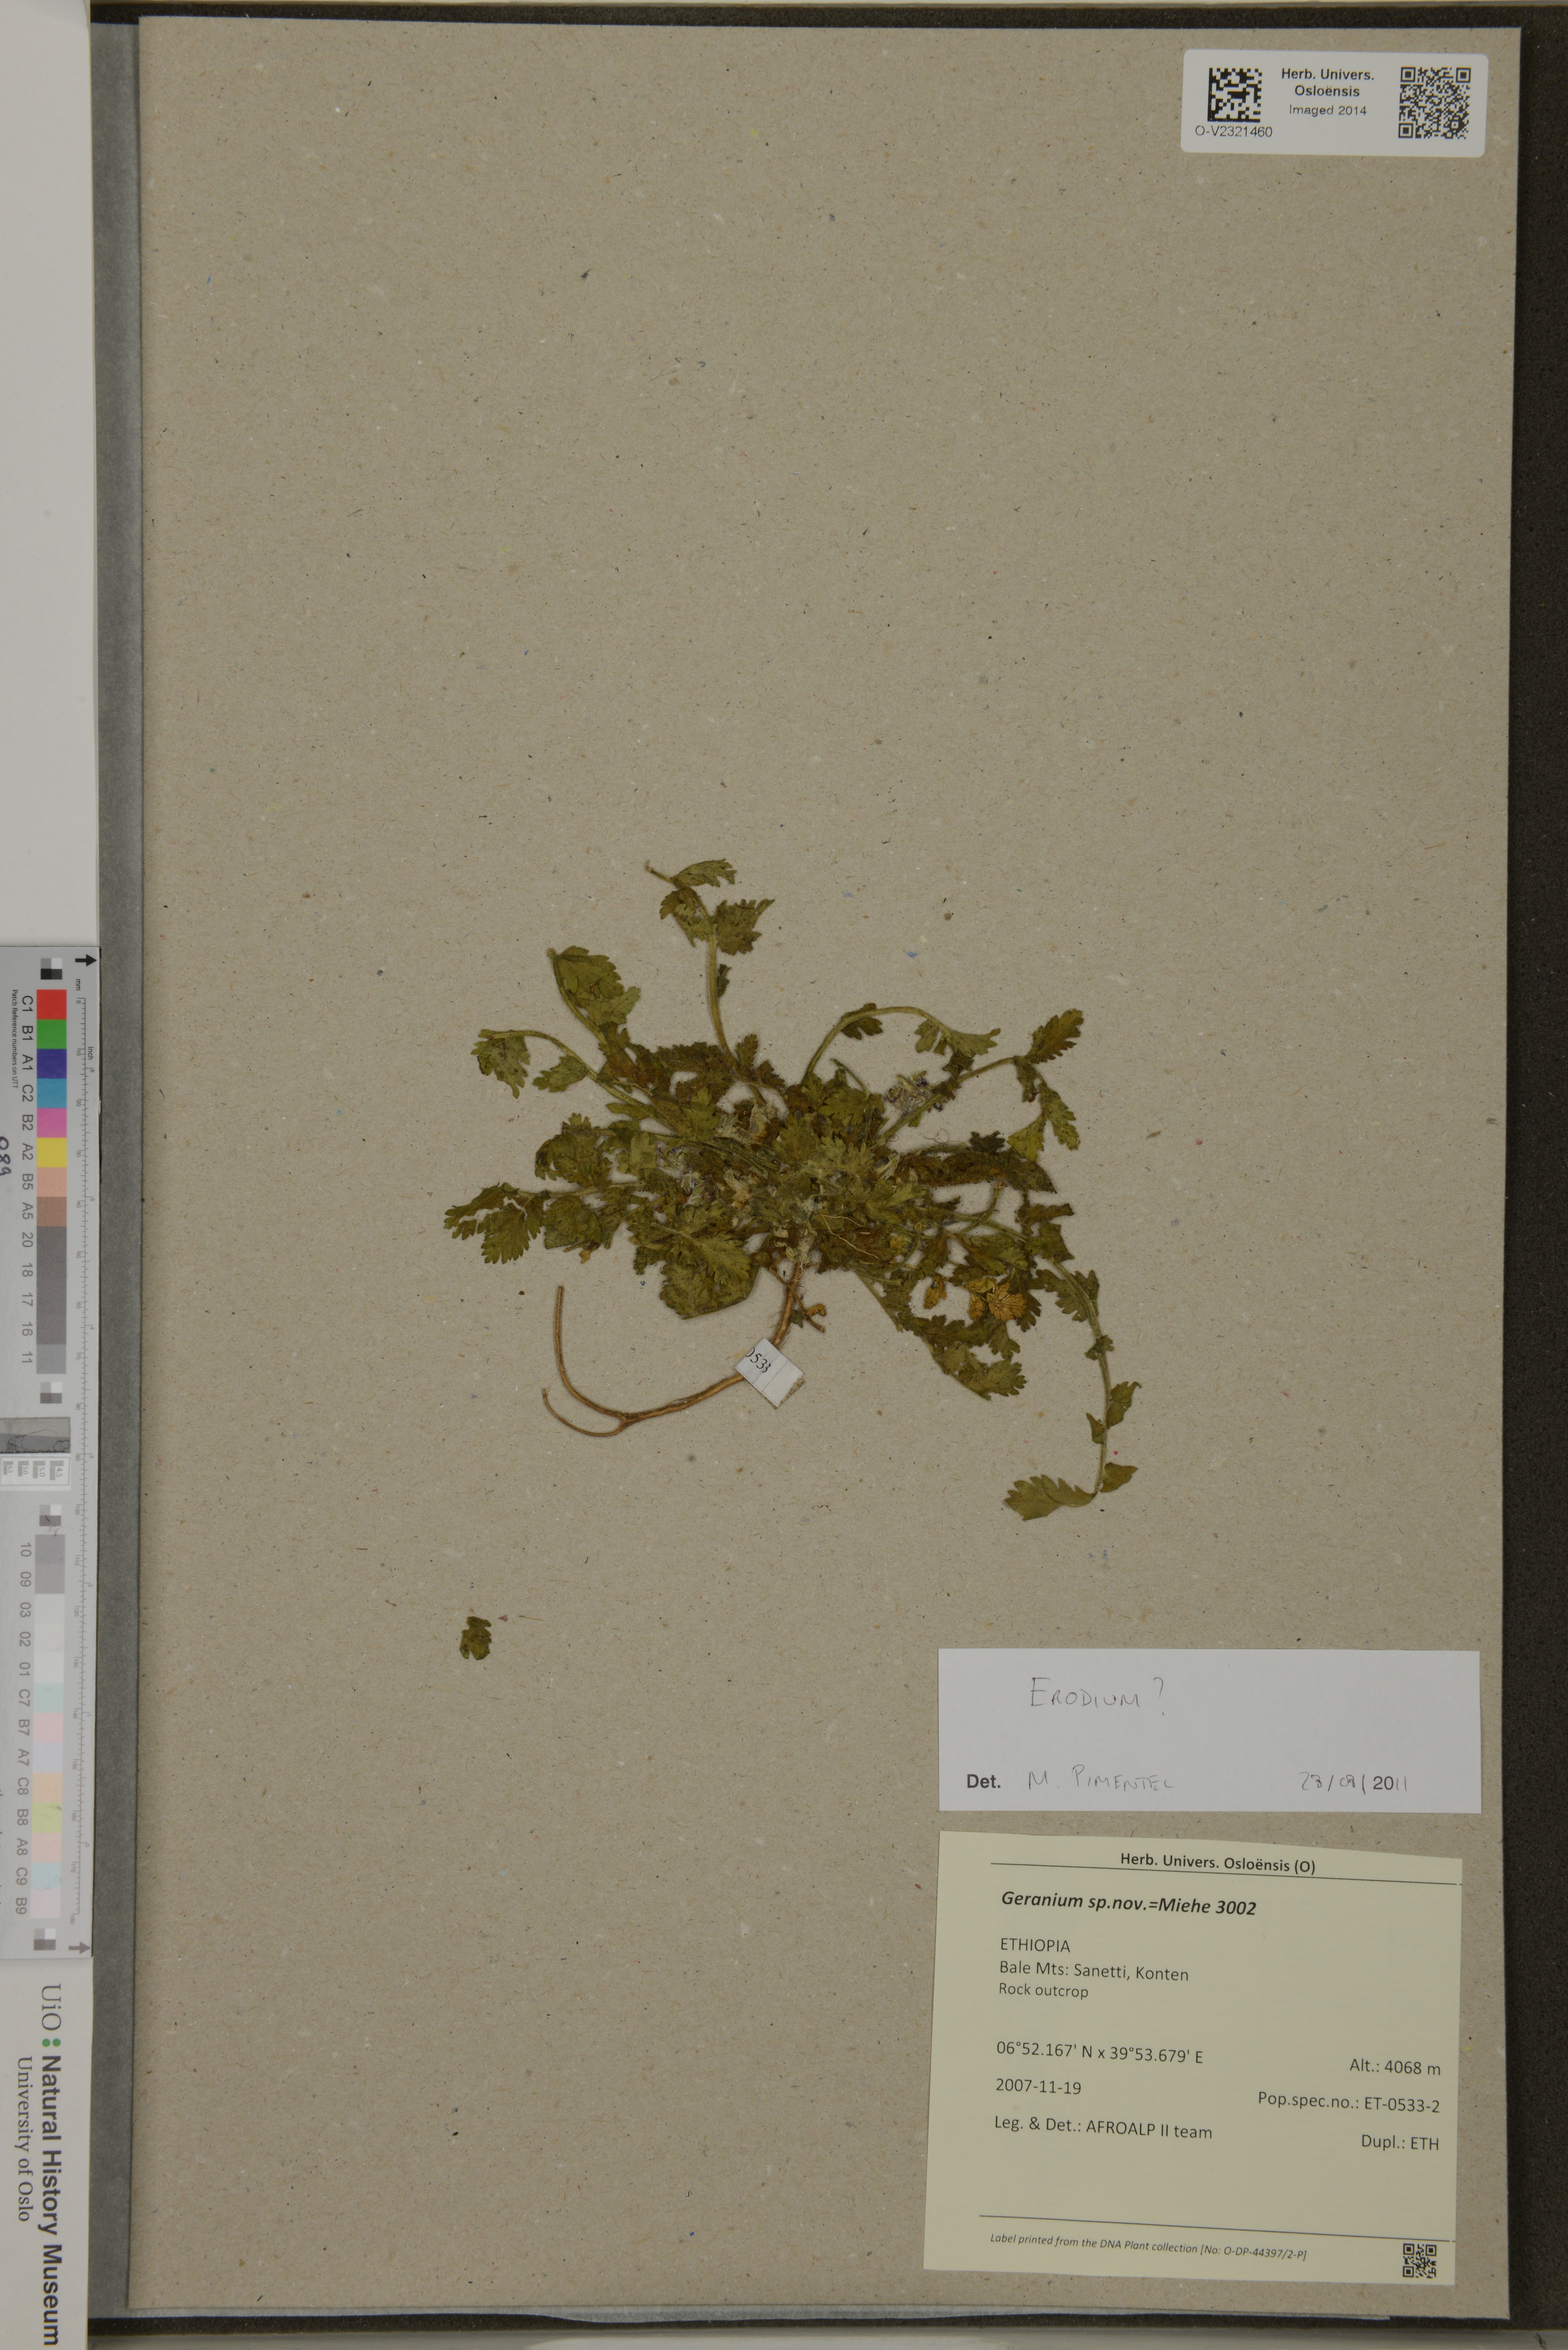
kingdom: Plantae
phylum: Tracheophyta
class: Magnoliopsida
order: Geraniales
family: Geraniaceae
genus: Erodium
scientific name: Erodium
